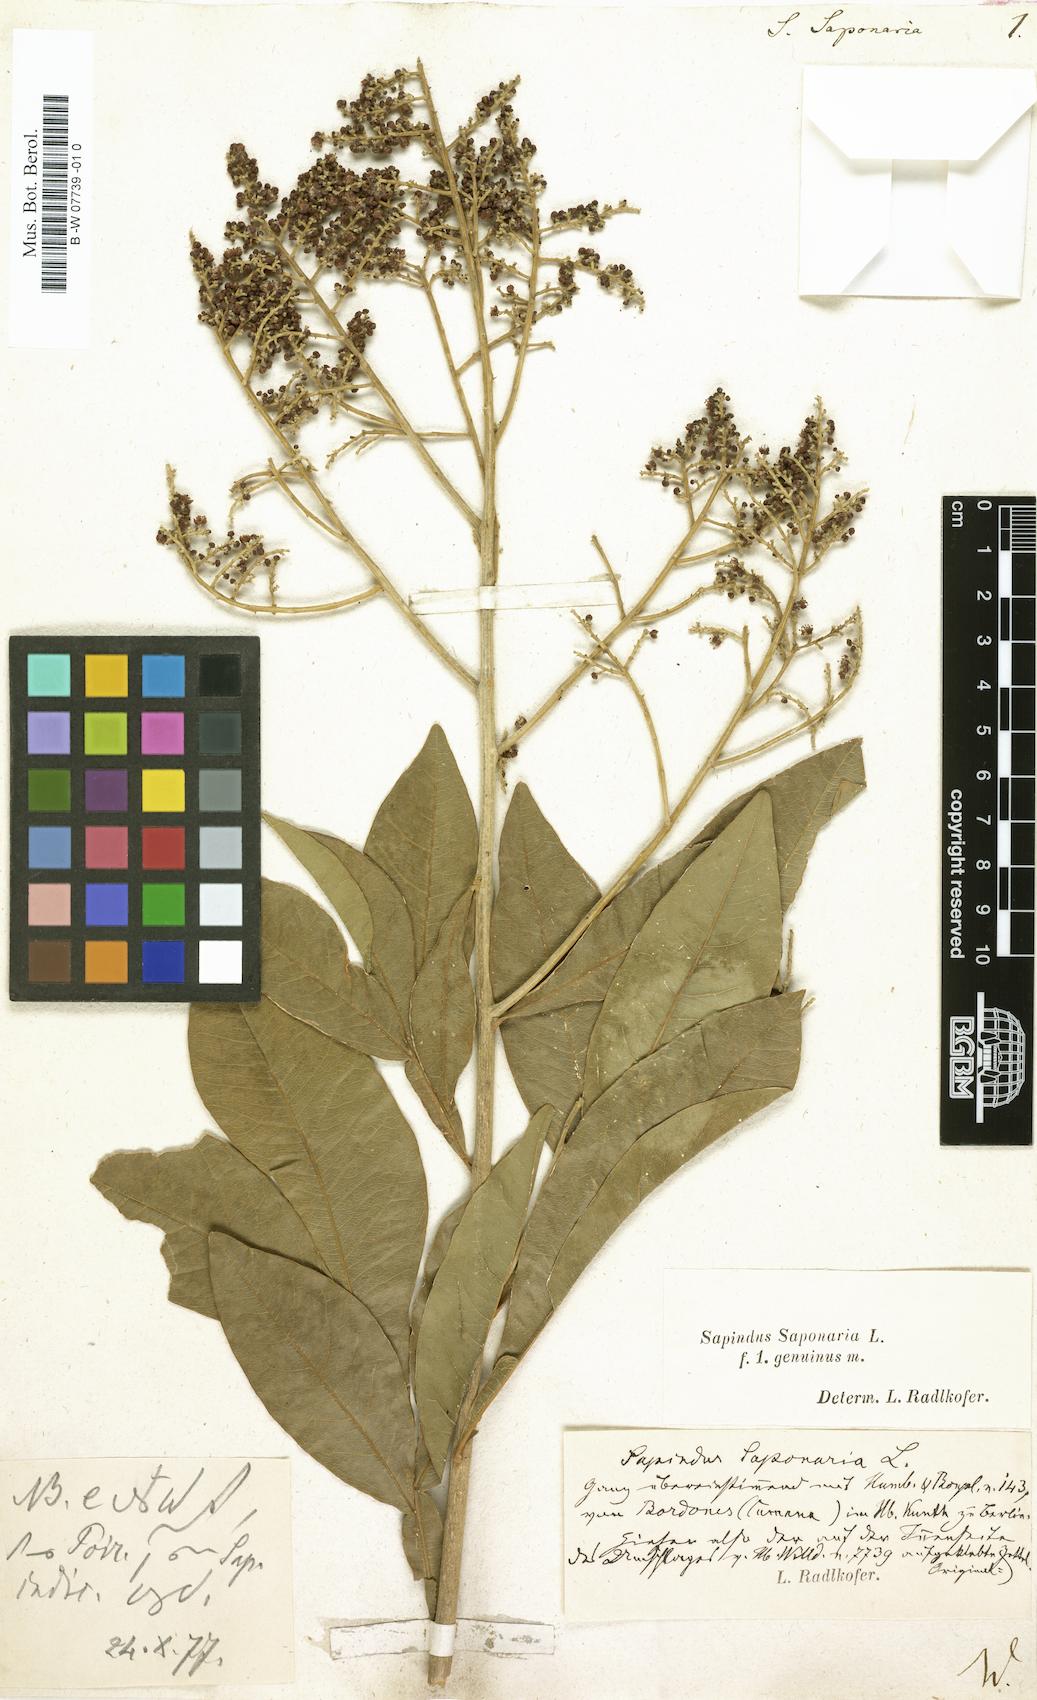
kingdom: Plantae
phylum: Tracheophyta
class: Magnoliopsida
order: Sapindales
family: Sapindaceae
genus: Sapindus
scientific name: Sapindus saponaria
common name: Wingleaf soapberry
